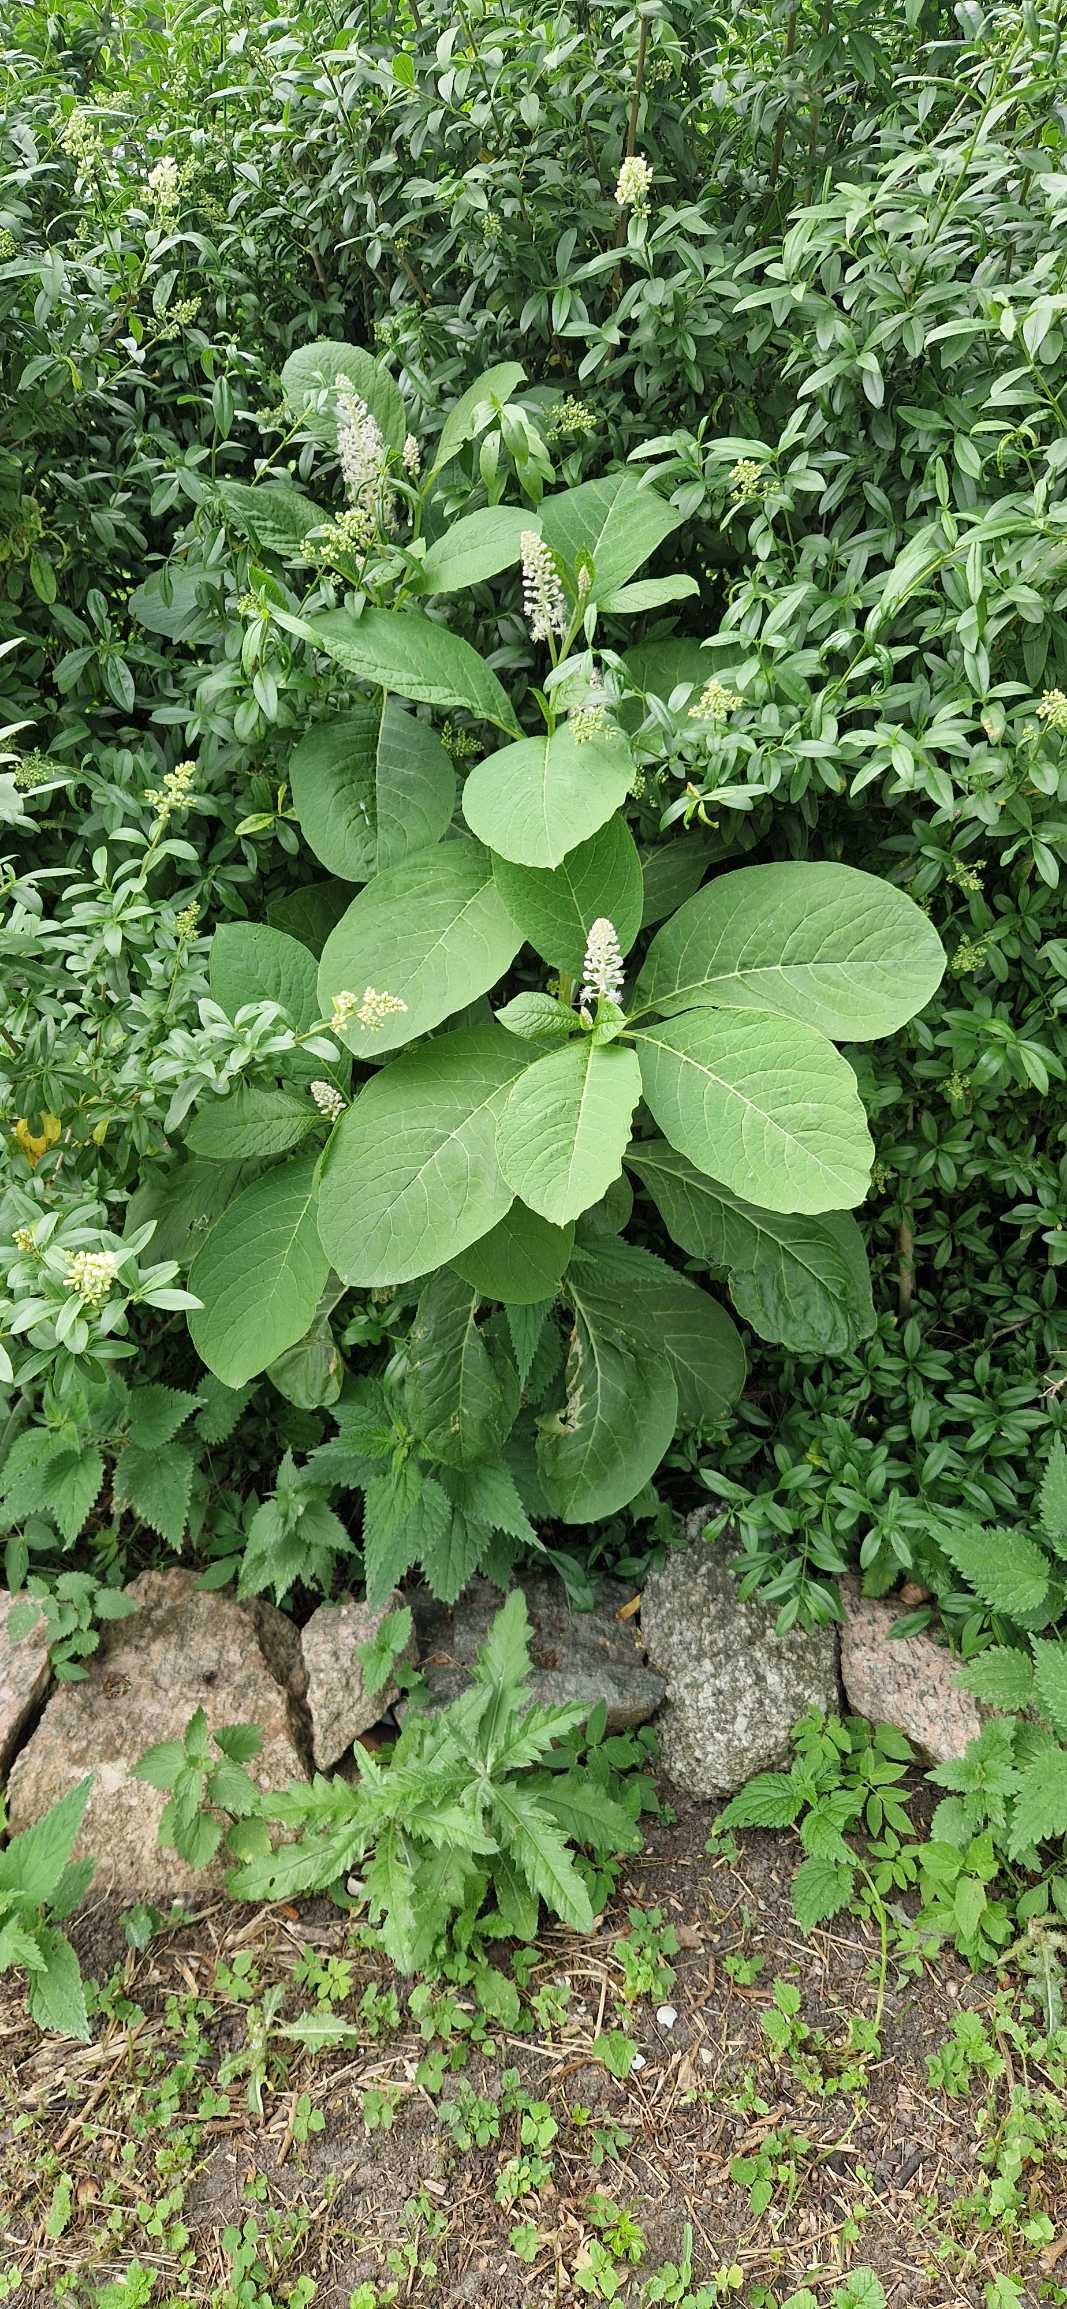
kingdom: Plantae
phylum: Tracheophyta
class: Magnoliopsida
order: Caryophyllales
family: Phytolaccaceae
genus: Phytolacca
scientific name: Phytolacca acinosa
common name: Asiatisk kermesbær
